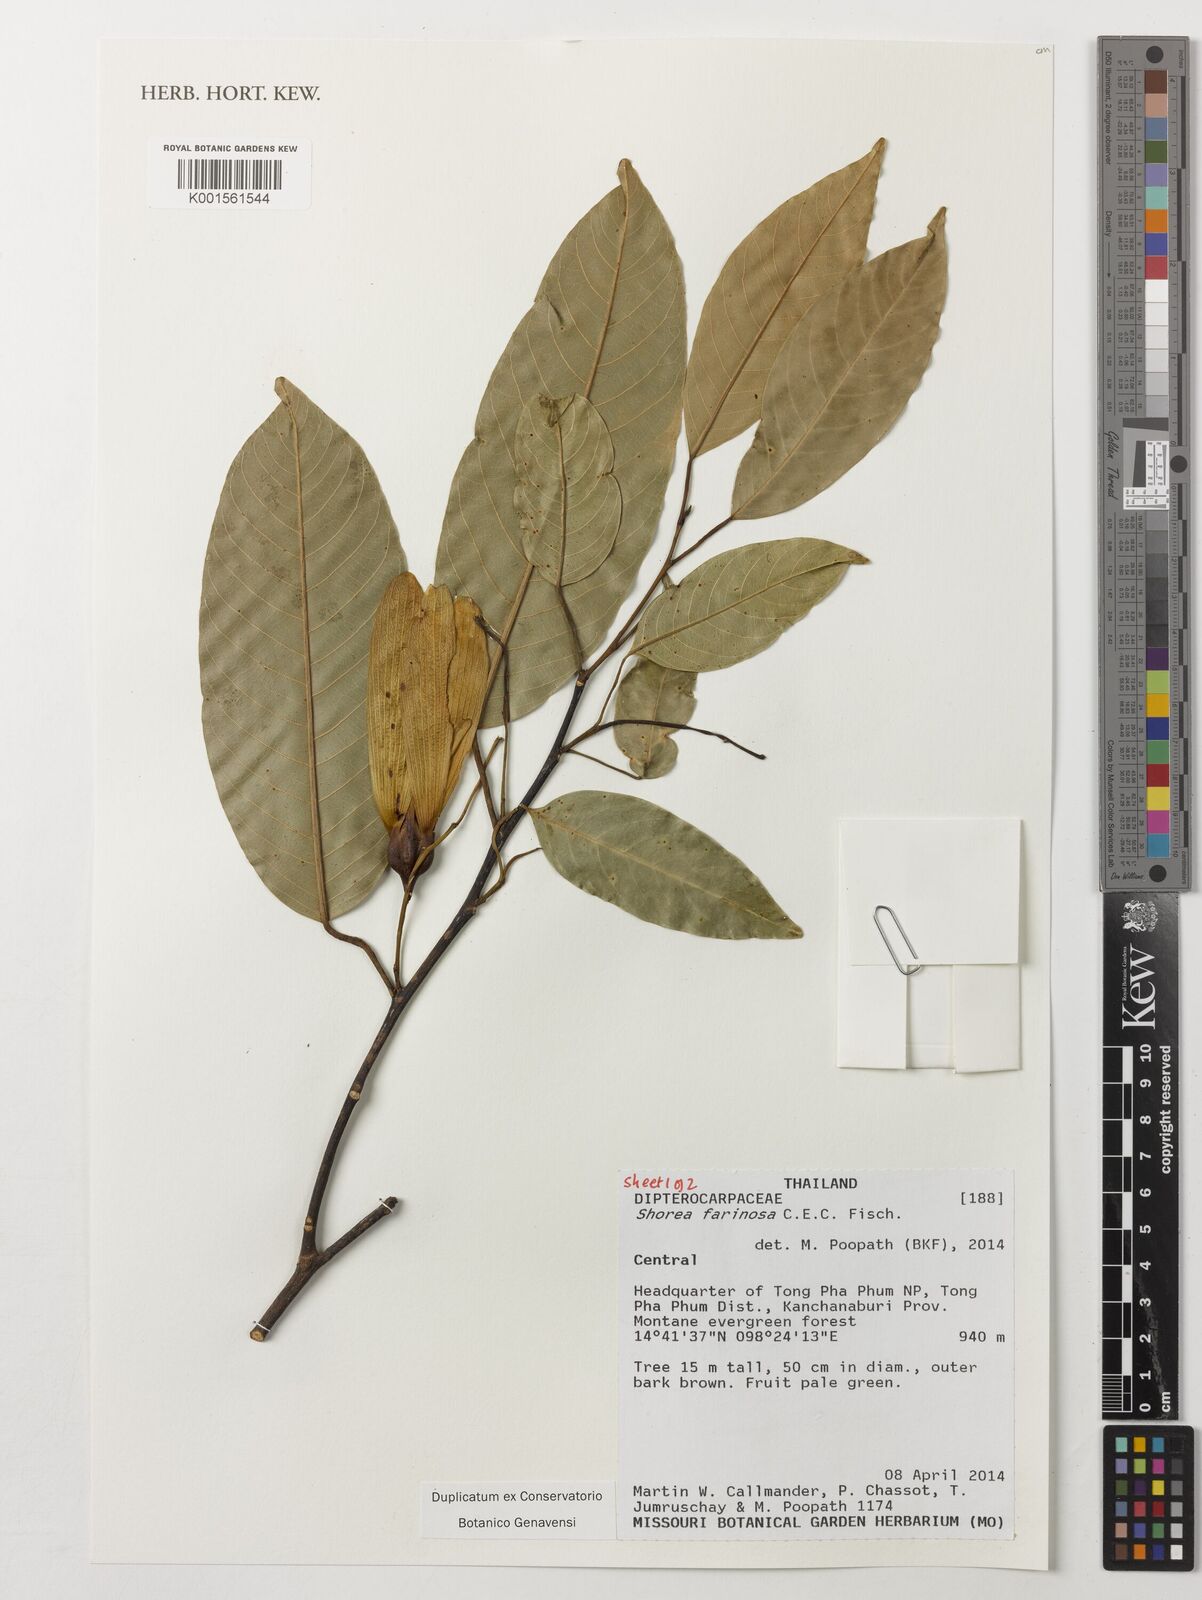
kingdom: Plantae
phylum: Tracheophyta
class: Magnoliopsida
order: Malvales
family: Dipterocarpaceae
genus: Anthoshorea
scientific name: Anthoshorea farinosa
